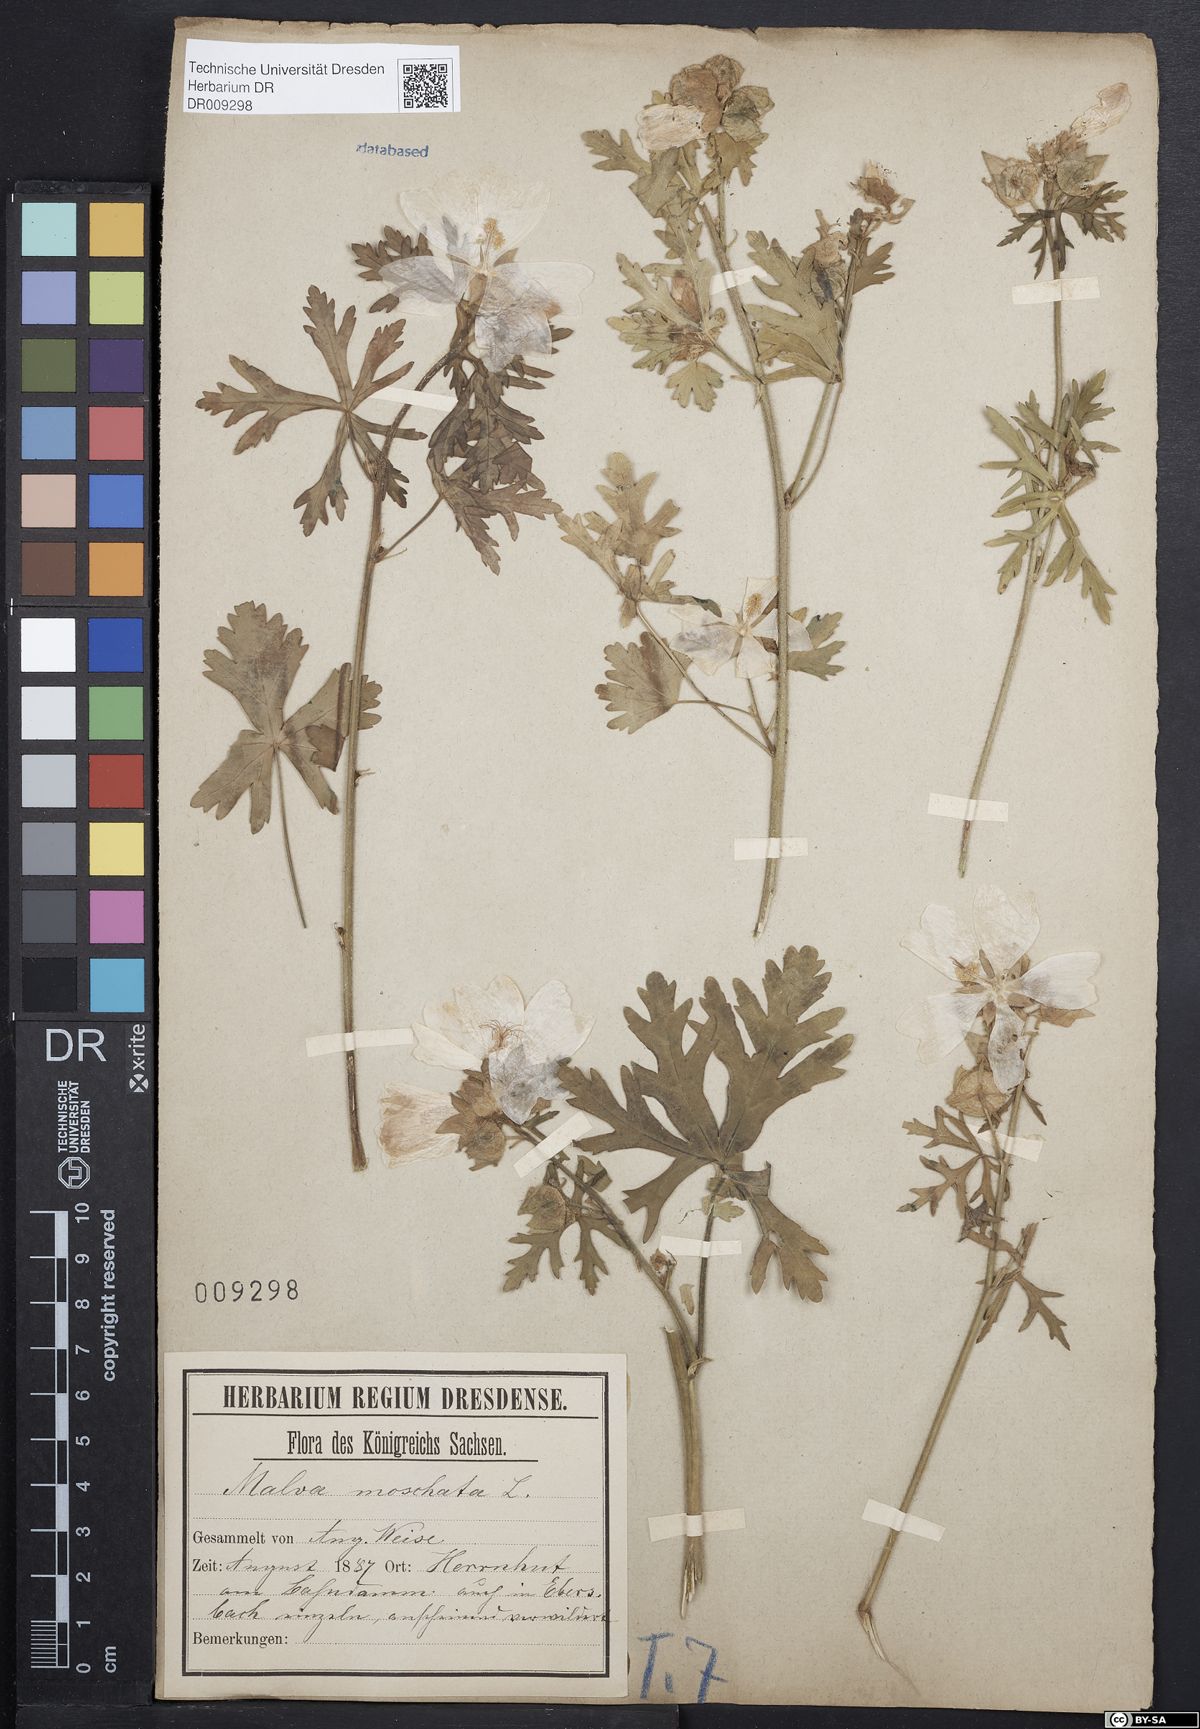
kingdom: Plantae
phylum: Tracheophyta
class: Magnoliopsida
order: Malvales
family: Malvaceae
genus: Malva
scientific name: Malva moschata
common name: Musk mallow
